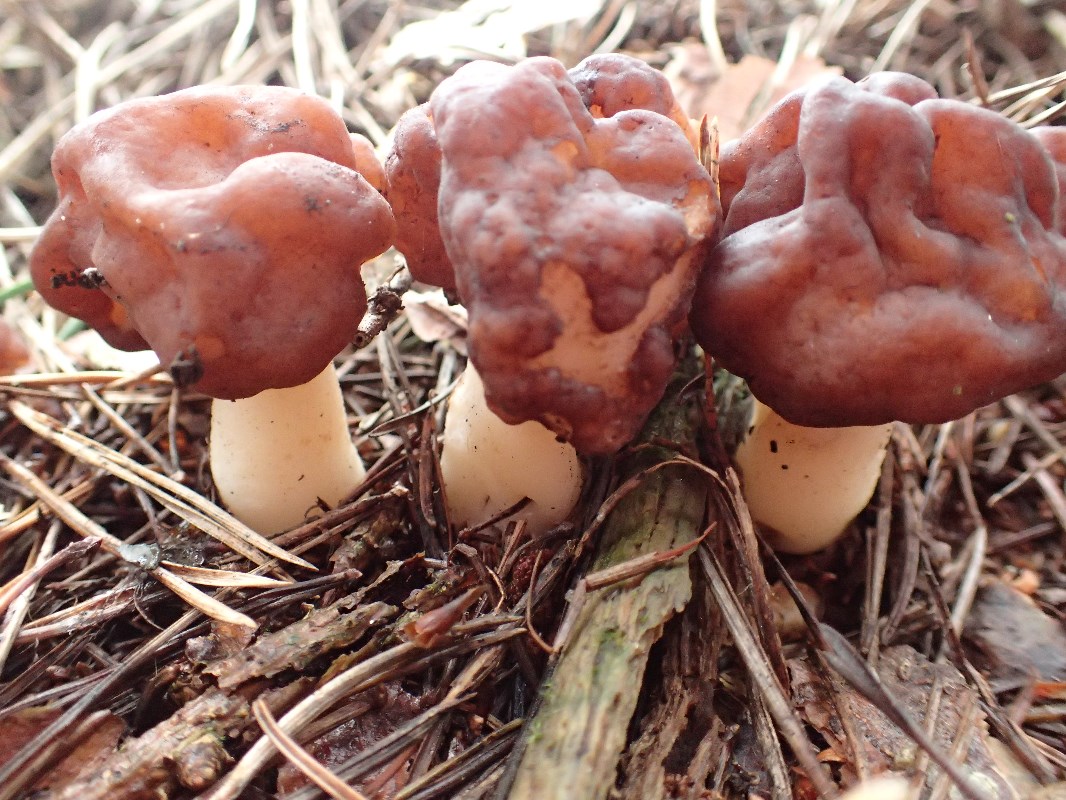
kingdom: Fungi
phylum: Ascomycota
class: Pezizomycetes
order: Pezizales
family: Discinaceae
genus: Gyromitra
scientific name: Gyromitra esculenta
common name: ægte stenmorkel
